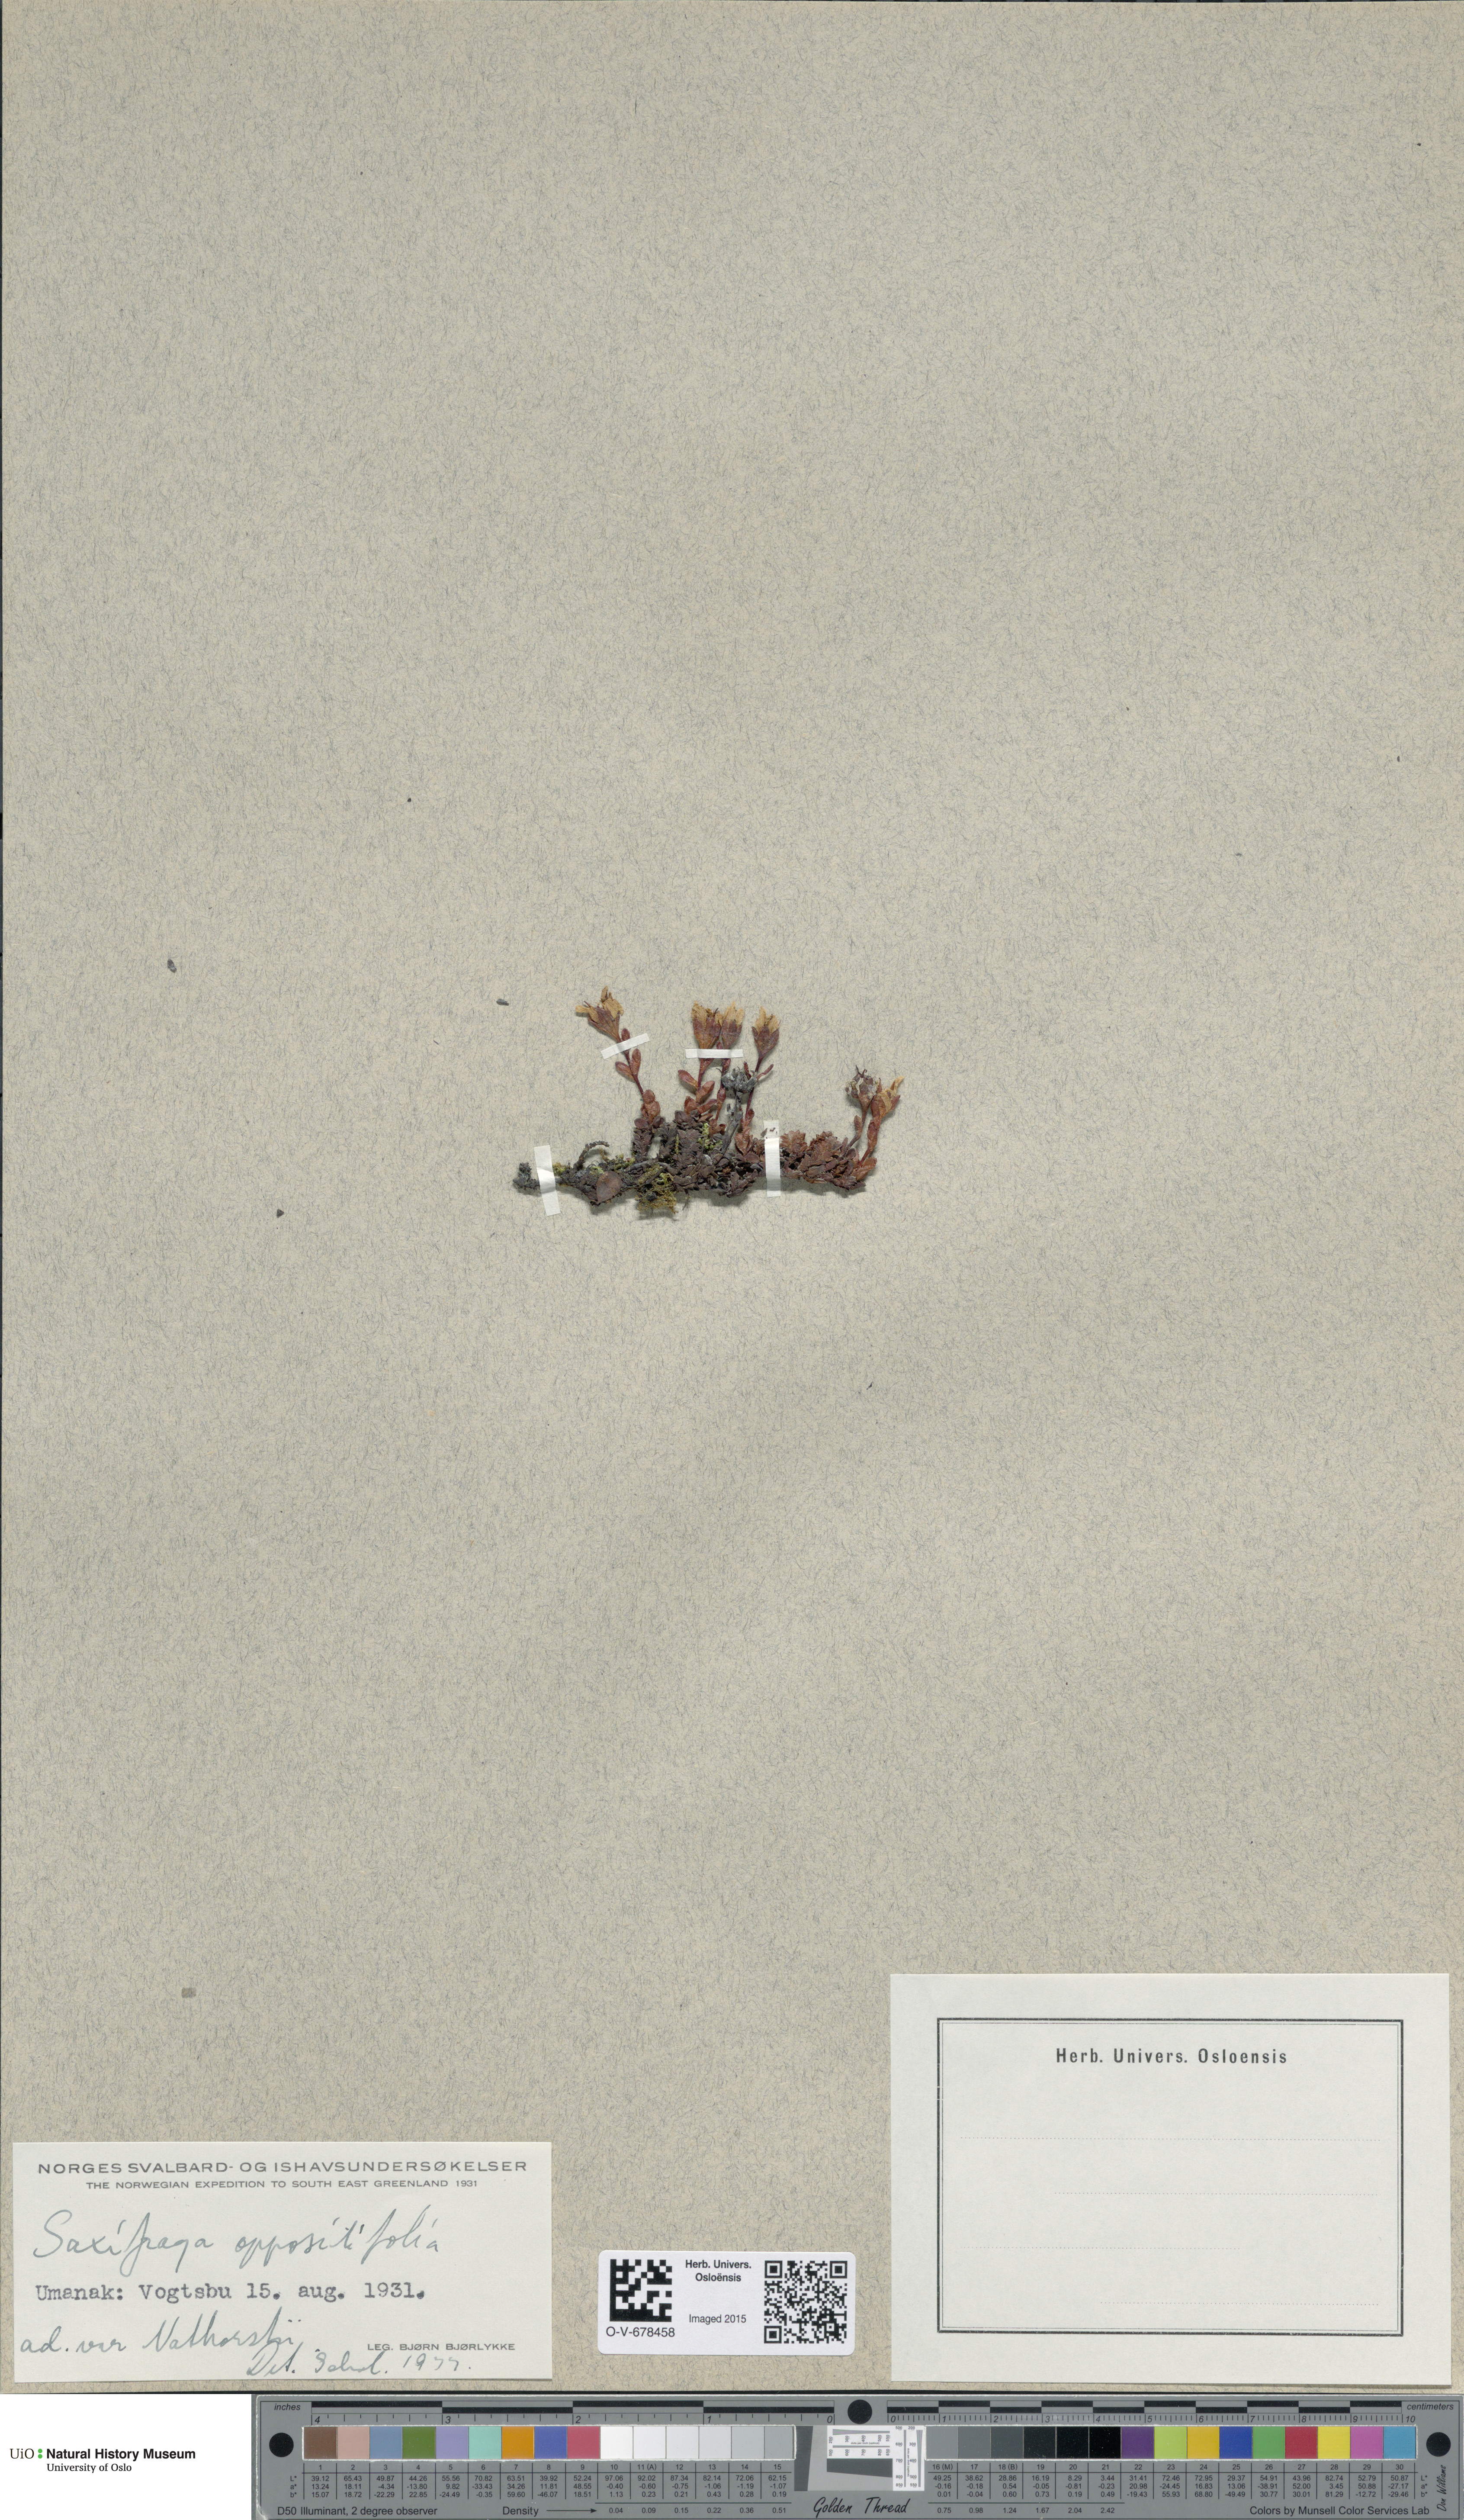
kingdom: Plantae
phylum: Tracheophyta
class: Magnoliopsida
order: Saxifragales
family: Saxifragaceae
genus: Saxifraga
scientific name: Saxifraga oppositifolia
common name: Purple saxifrage
